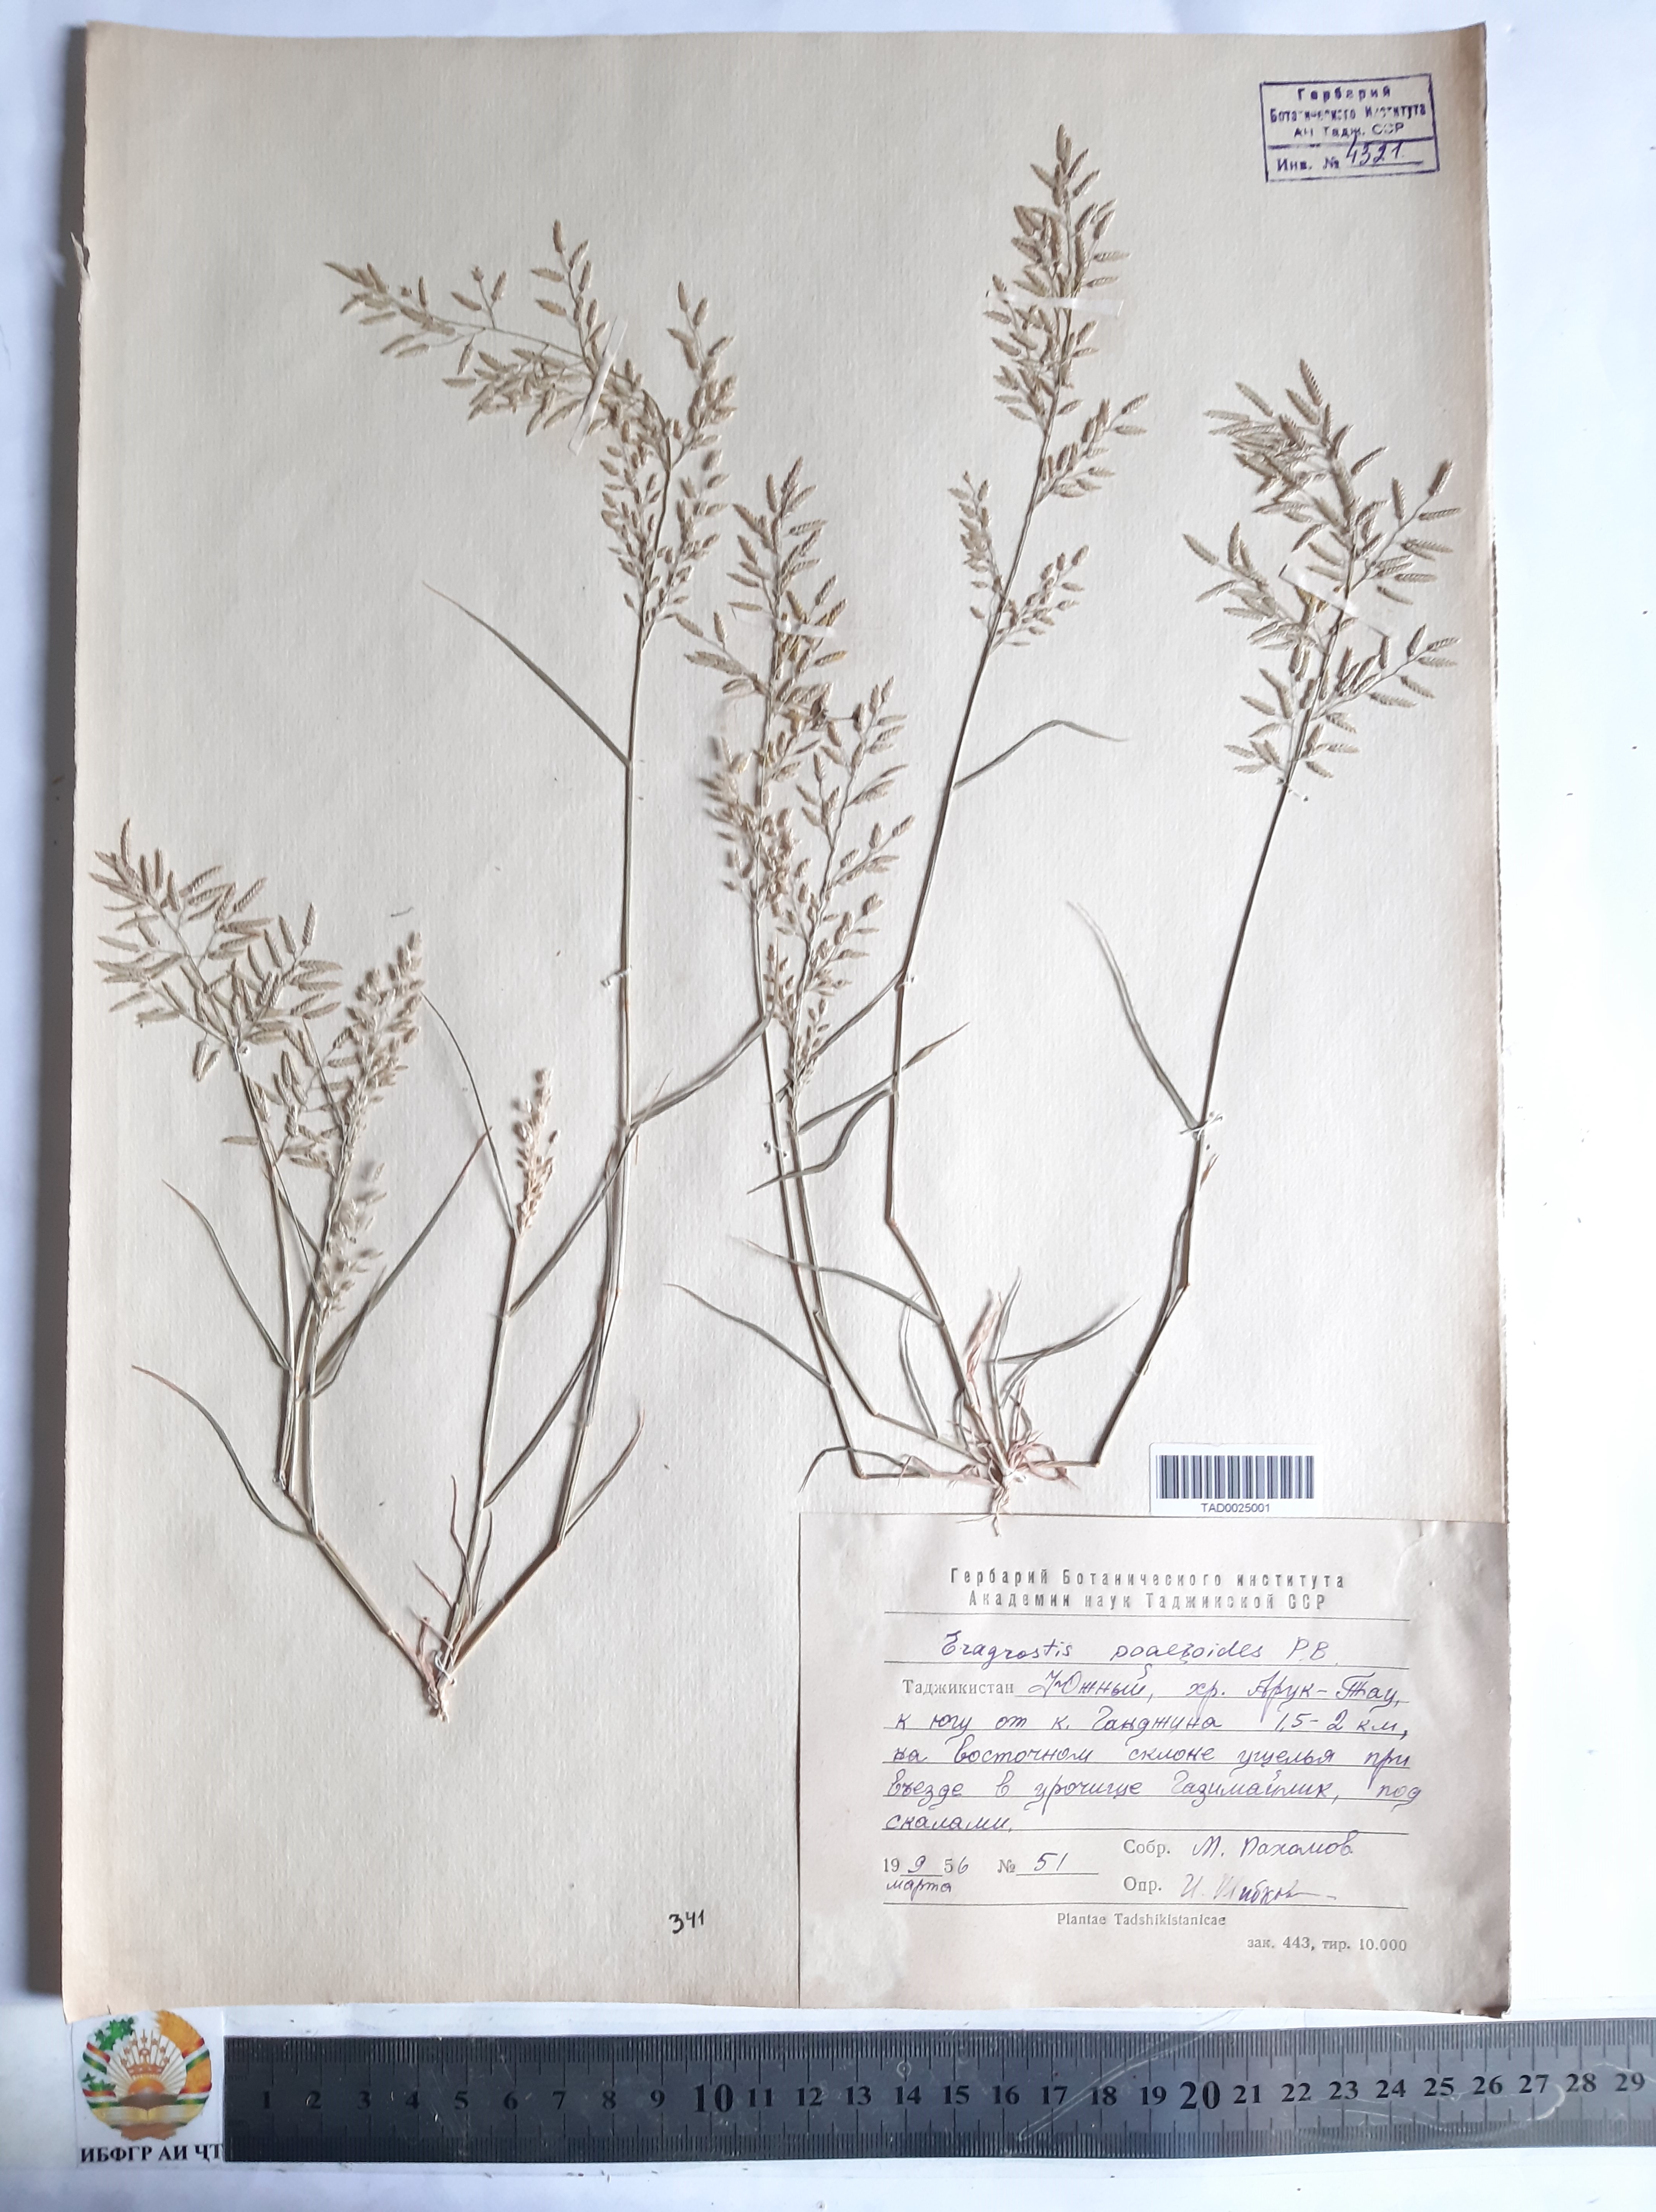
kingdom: Plantae
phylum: Tracheophyta
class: Liliopsida
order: Poales
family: Poaceae
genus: Eragrostis
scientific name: Eragrostis minor
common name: Small love-grass
